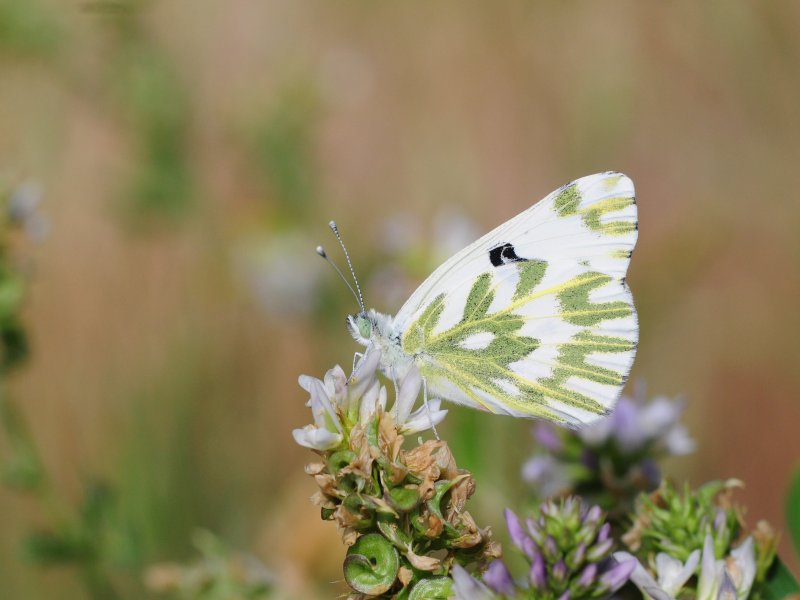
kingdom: Animalia
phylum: Arthropoda
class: Insecta
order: Lepidoptera
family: Pieridae
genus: Pontia
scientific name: Pontia beckerii
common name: Becker's White
